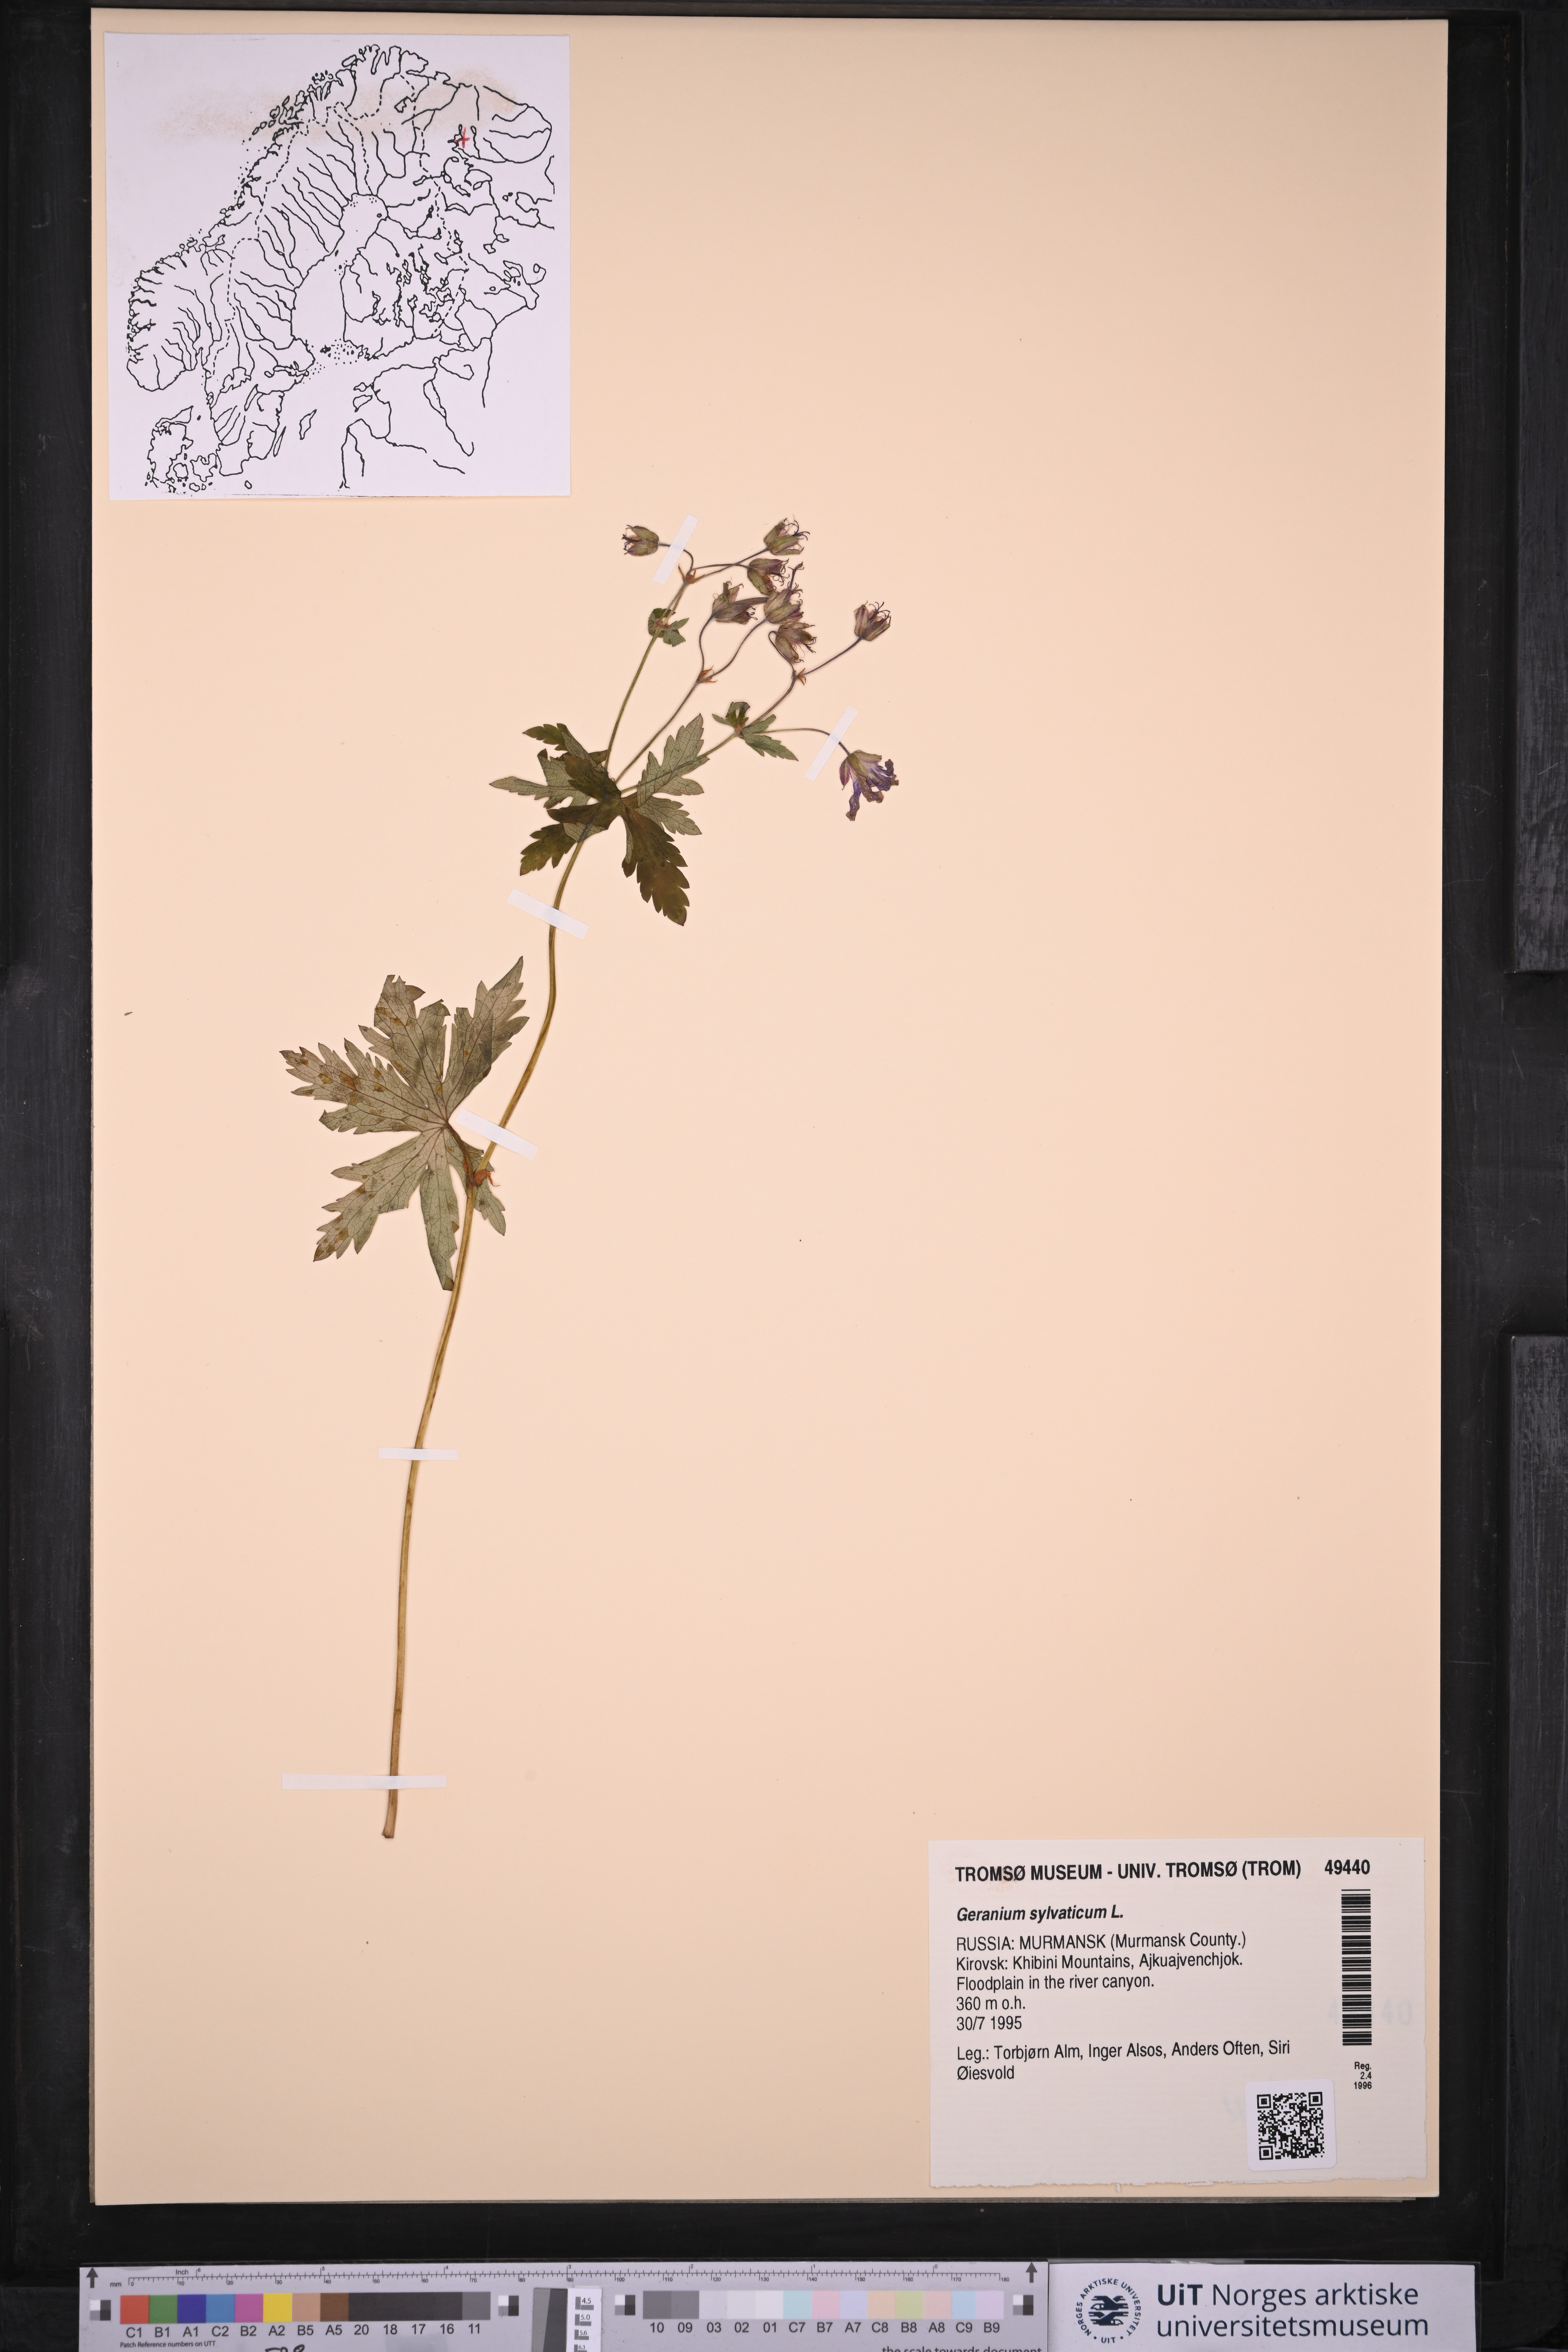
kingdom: Plantae
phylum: Tracheophyta
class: Magnoliopsida
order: Geraniales
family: Geraniaceae
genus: Geranium
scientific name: Geranium sylvaticum
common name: Wood crane's-bill
